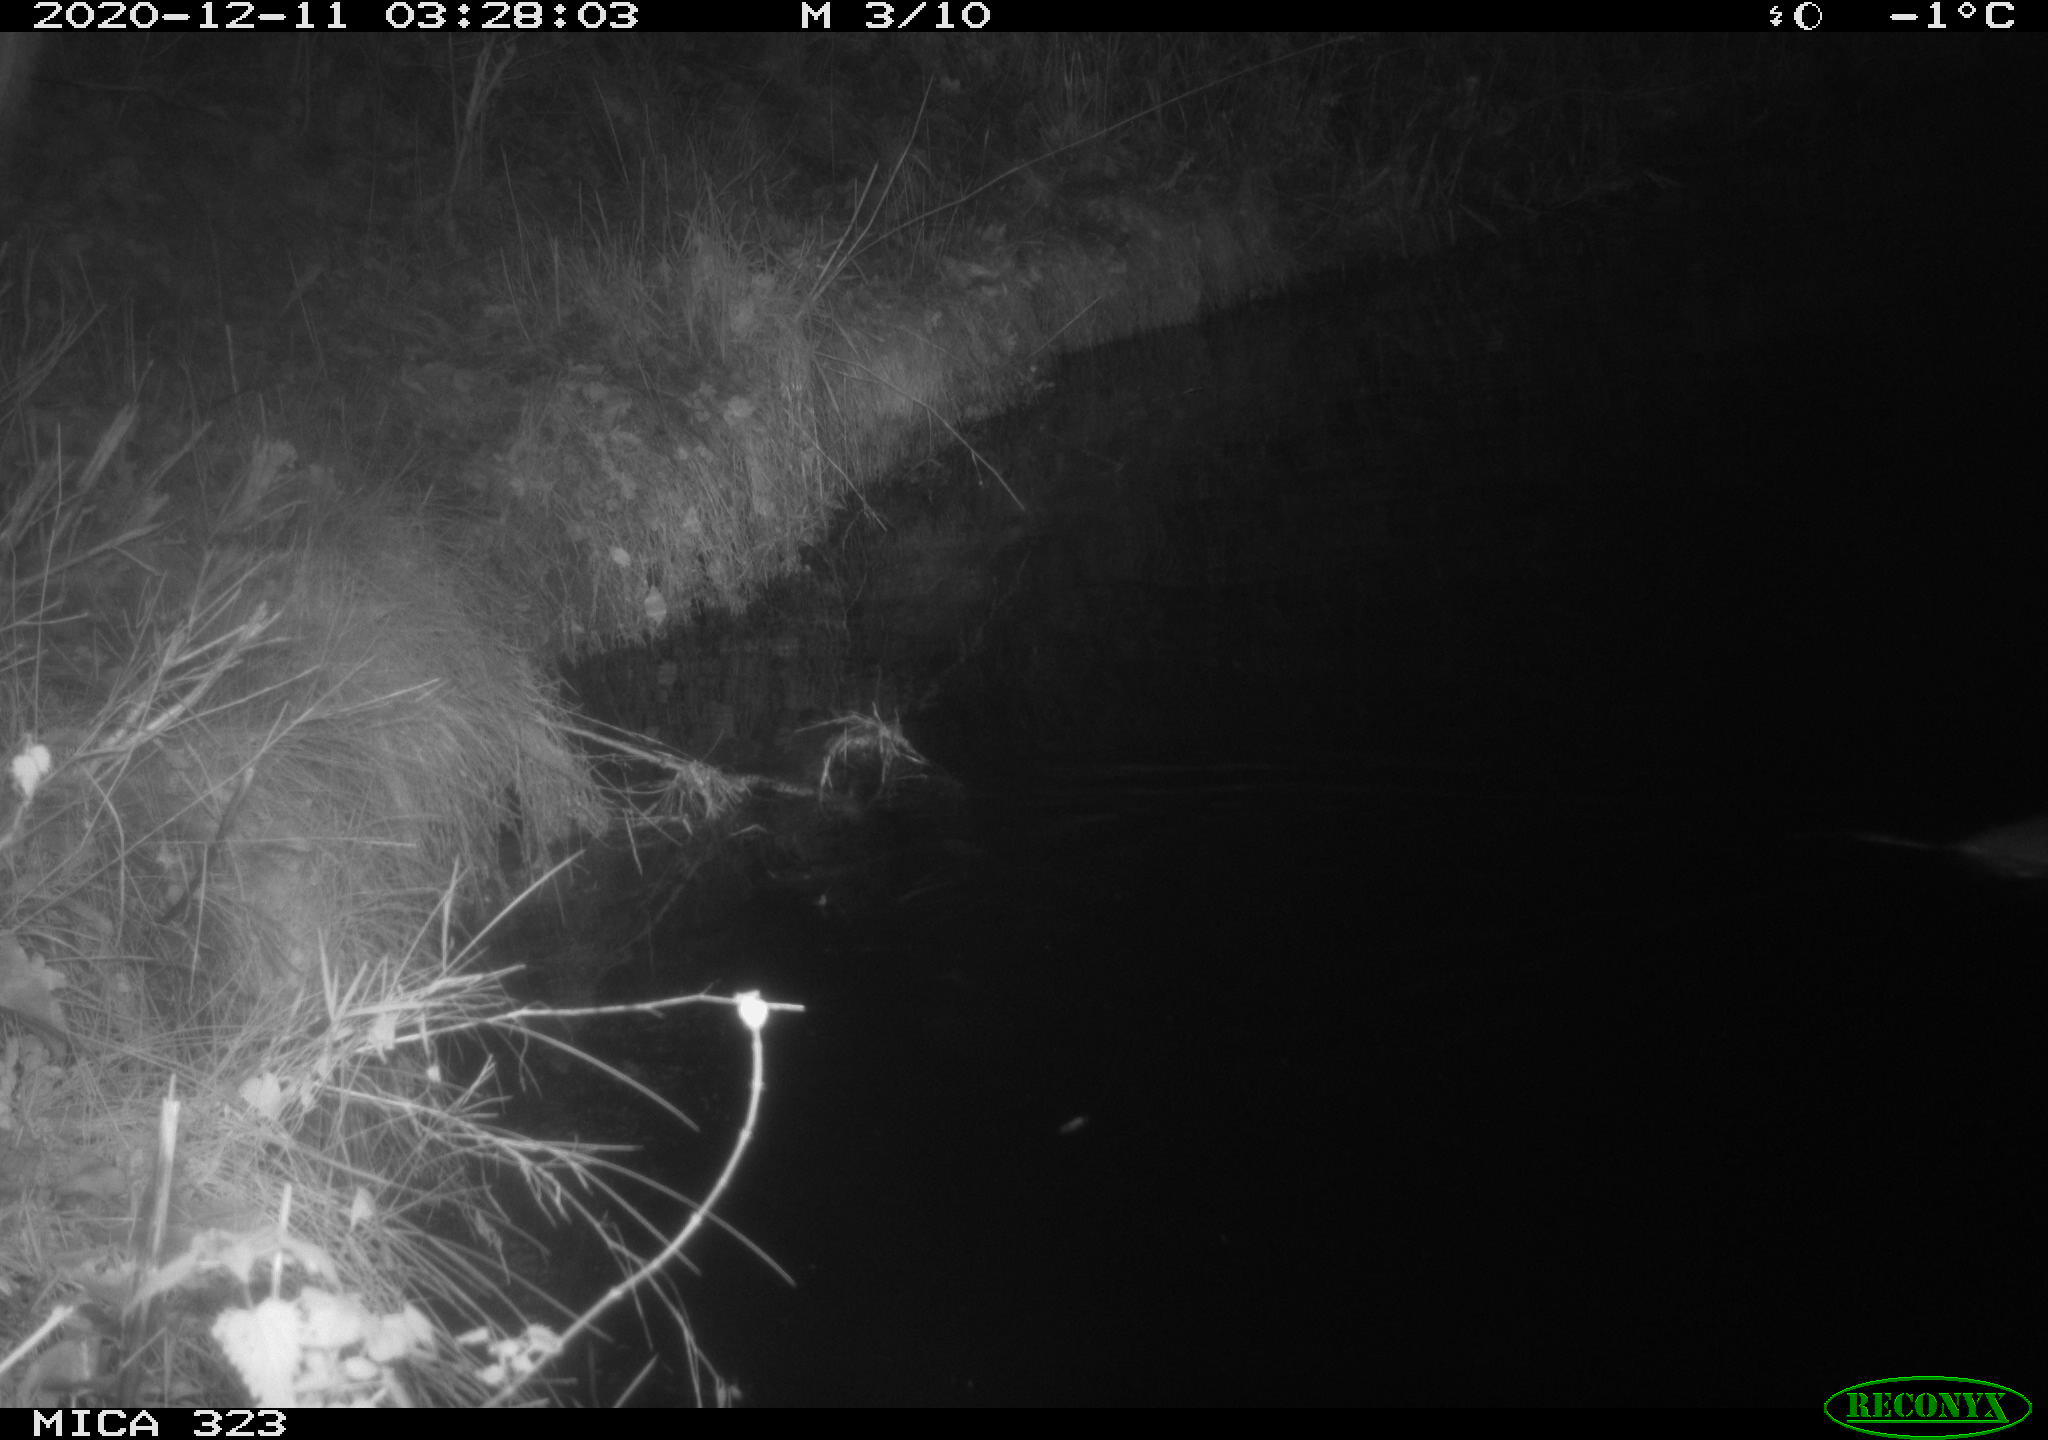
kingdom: Animalia
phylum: Chordata
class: Mammalia
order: Rodentia
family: Myocastoridae
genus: Myocastor
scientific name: Myocastor coypus
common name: Coypu
